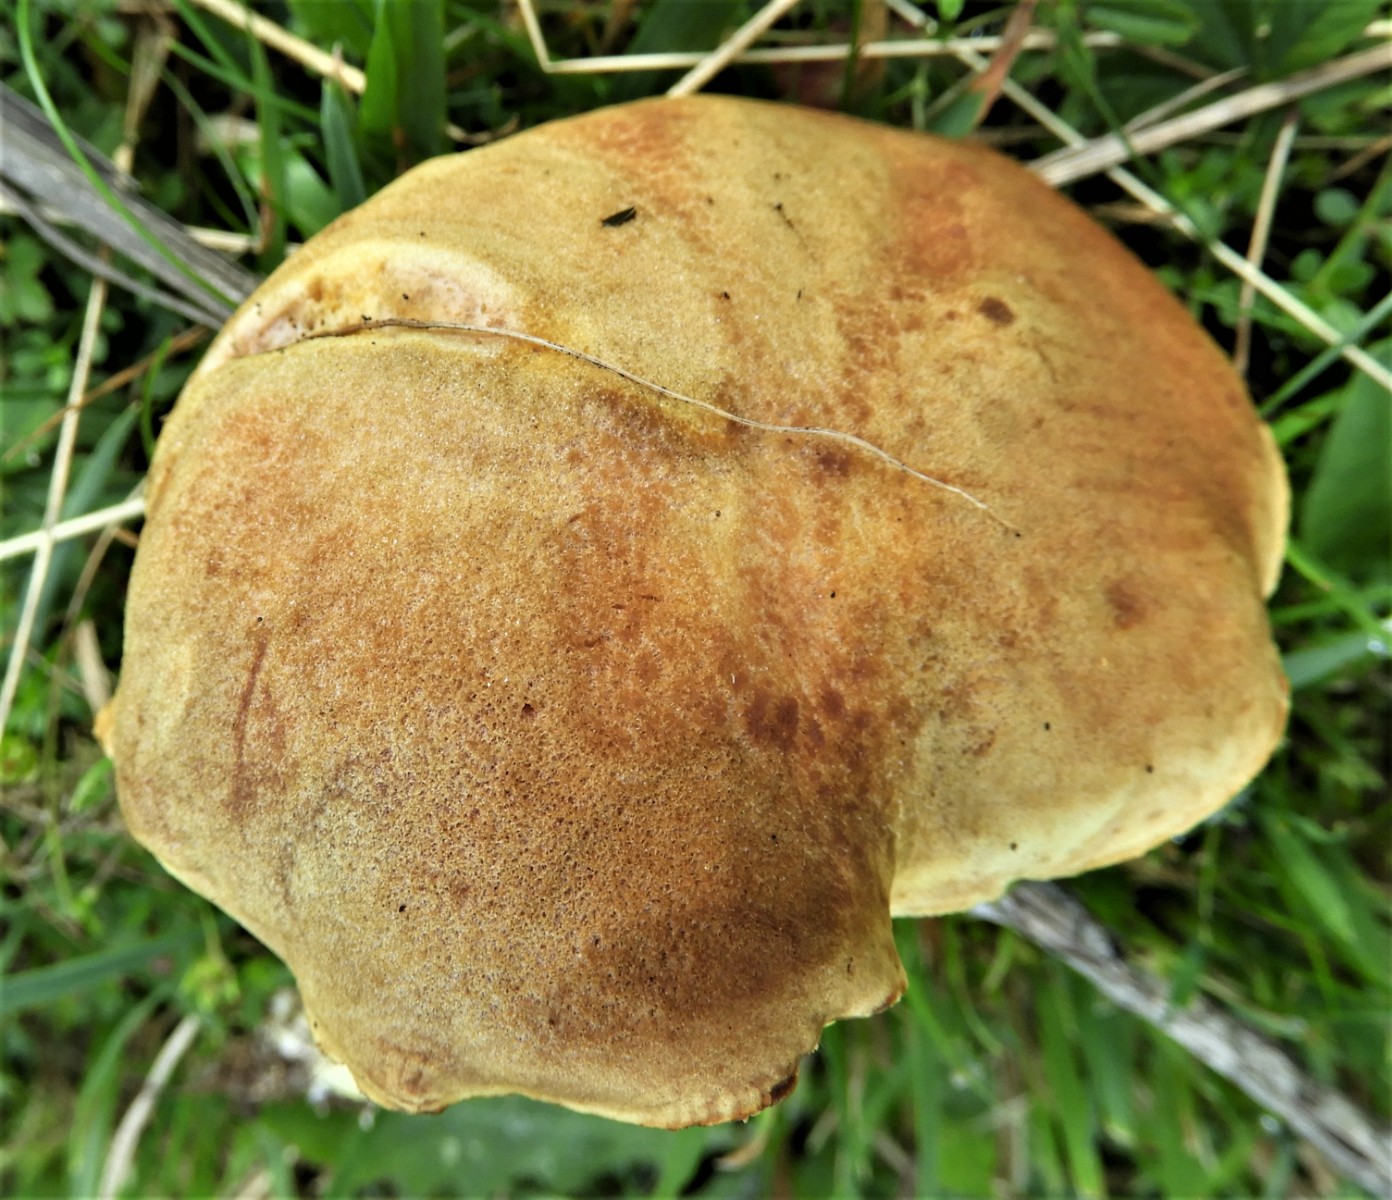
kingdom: Fungi
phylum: Basidiomycota
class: Agaricomycetes
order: Boletales
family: Boletaceae
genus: Xerocomus
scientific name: Xerocomus ferrugineus
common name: vaskeskinds-rørhat
